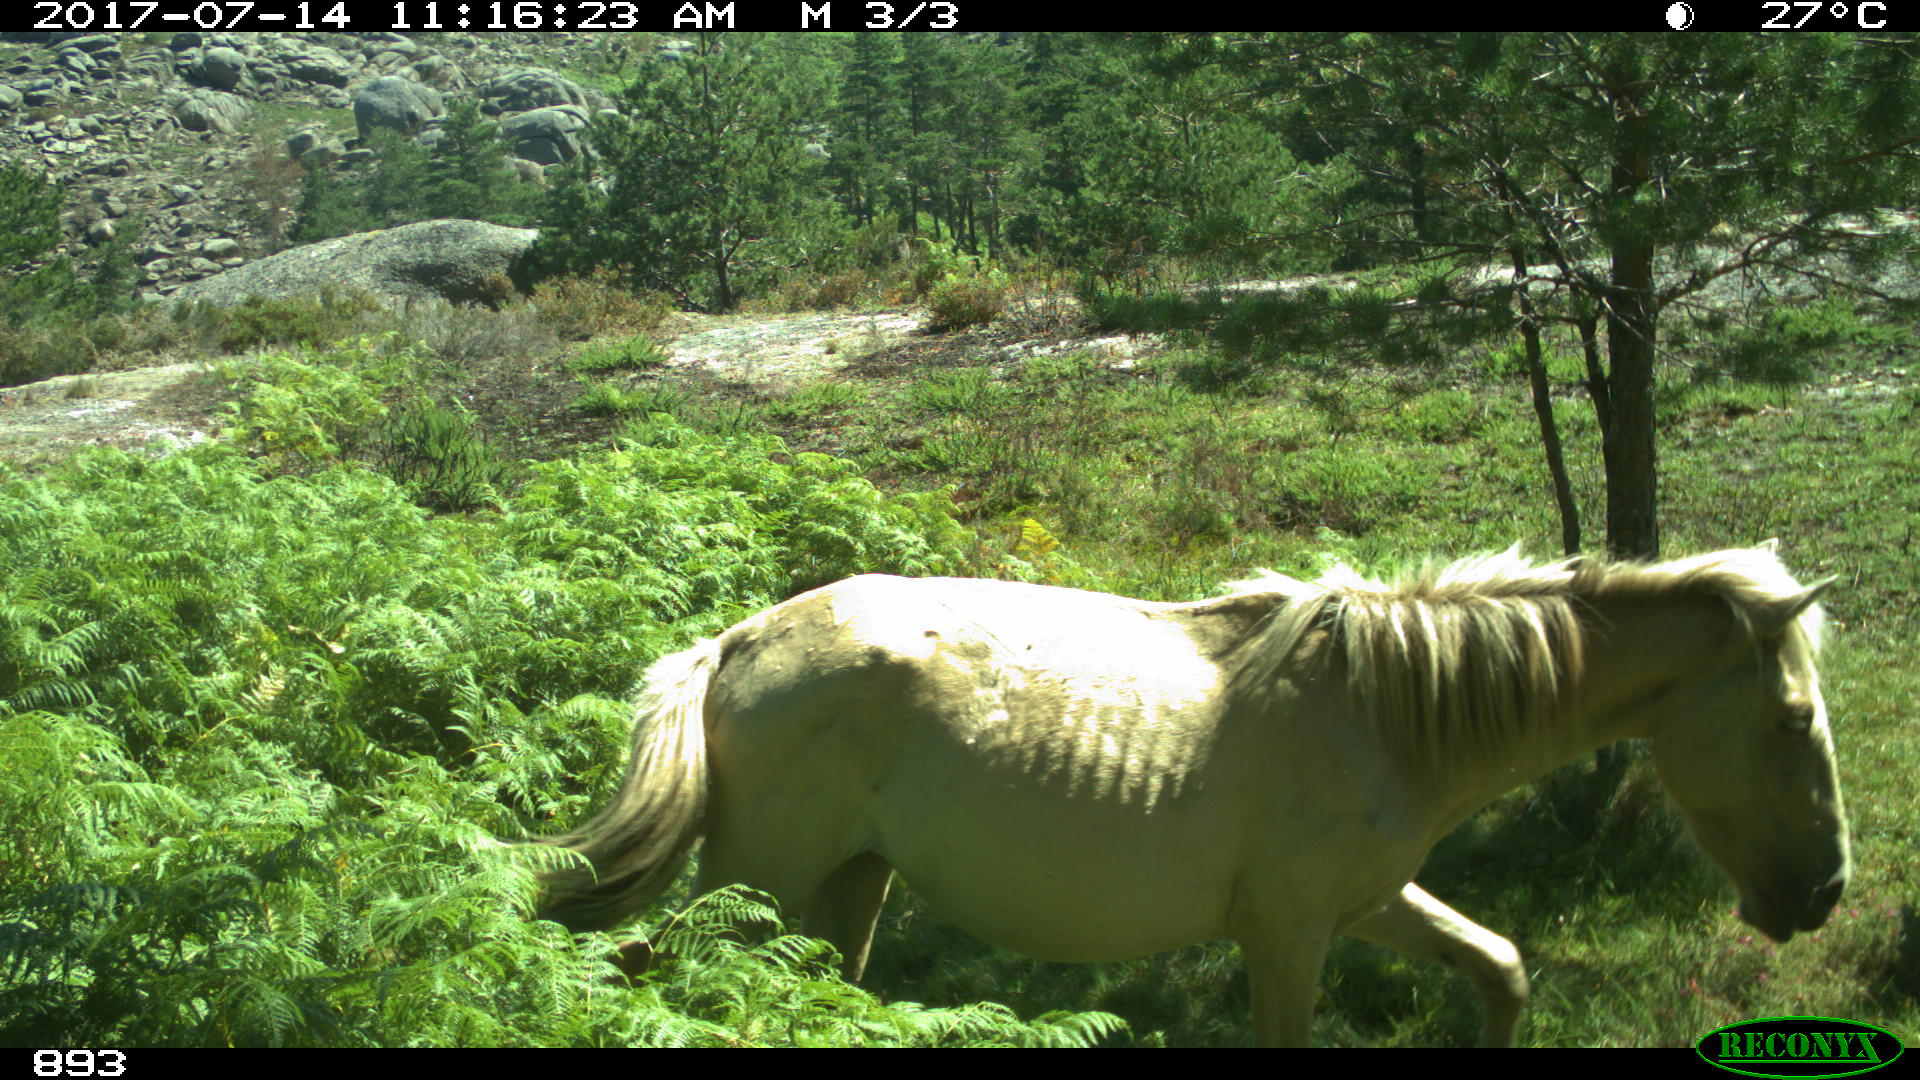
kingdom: Animalia
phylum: Chordata
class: Mammalia
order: Perissodactyla
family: Equidae
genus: Equus
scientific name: Equus caballus
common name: Horse
